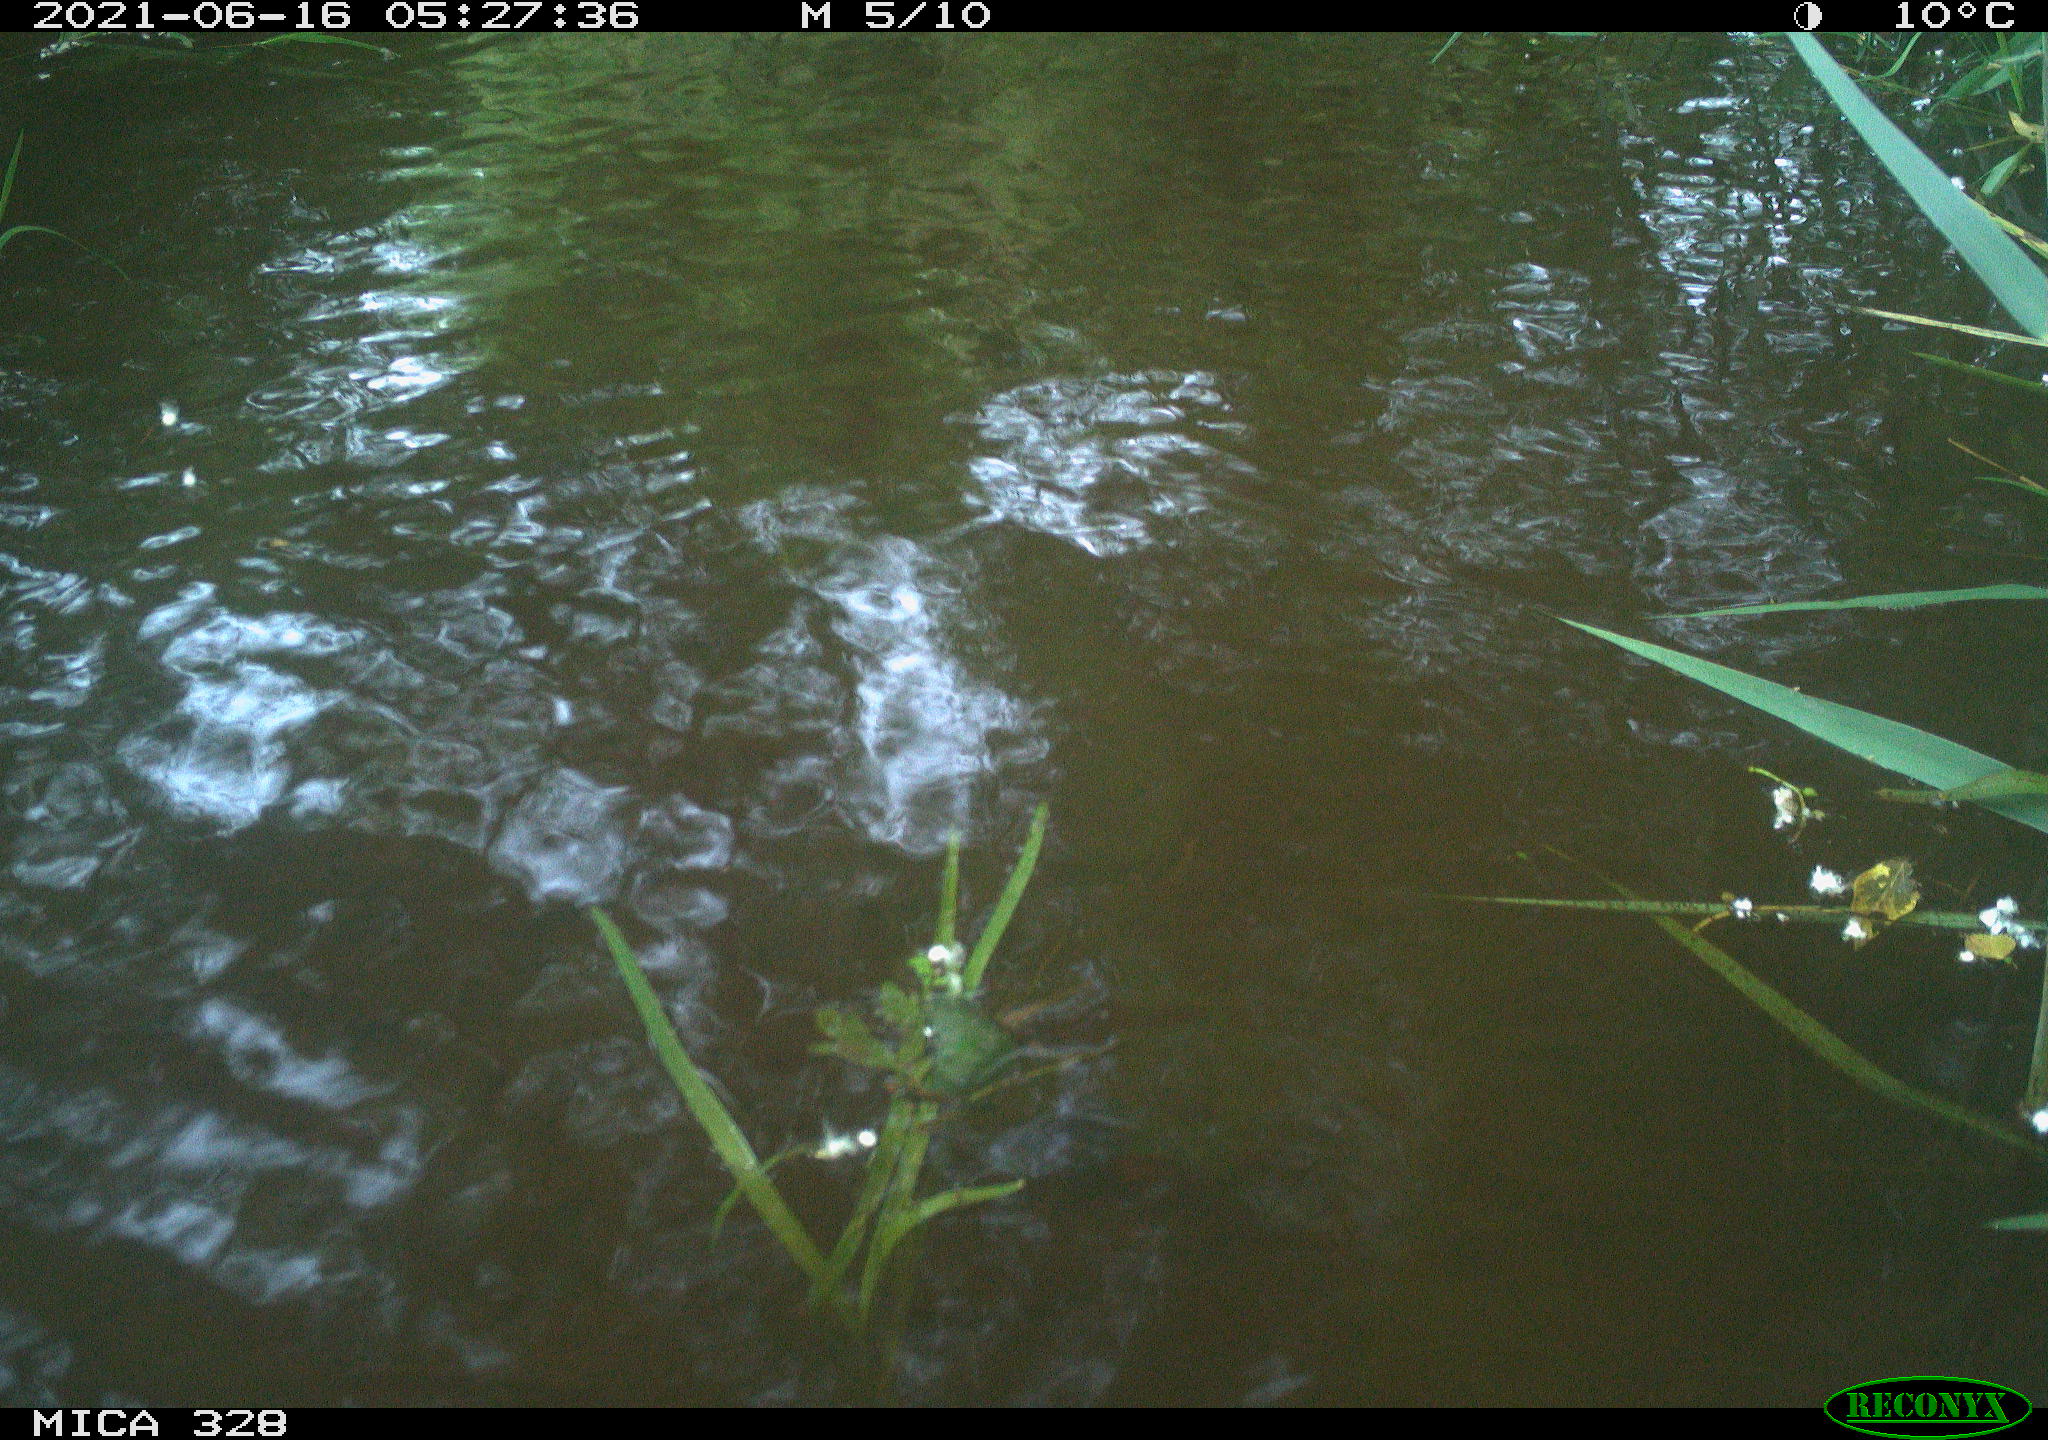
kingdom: Animalia
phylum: Chordata
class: Aves
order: Anseriformes
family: Anatidae
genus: Aix
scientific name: Aix galericulata
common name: Mandarin duck
